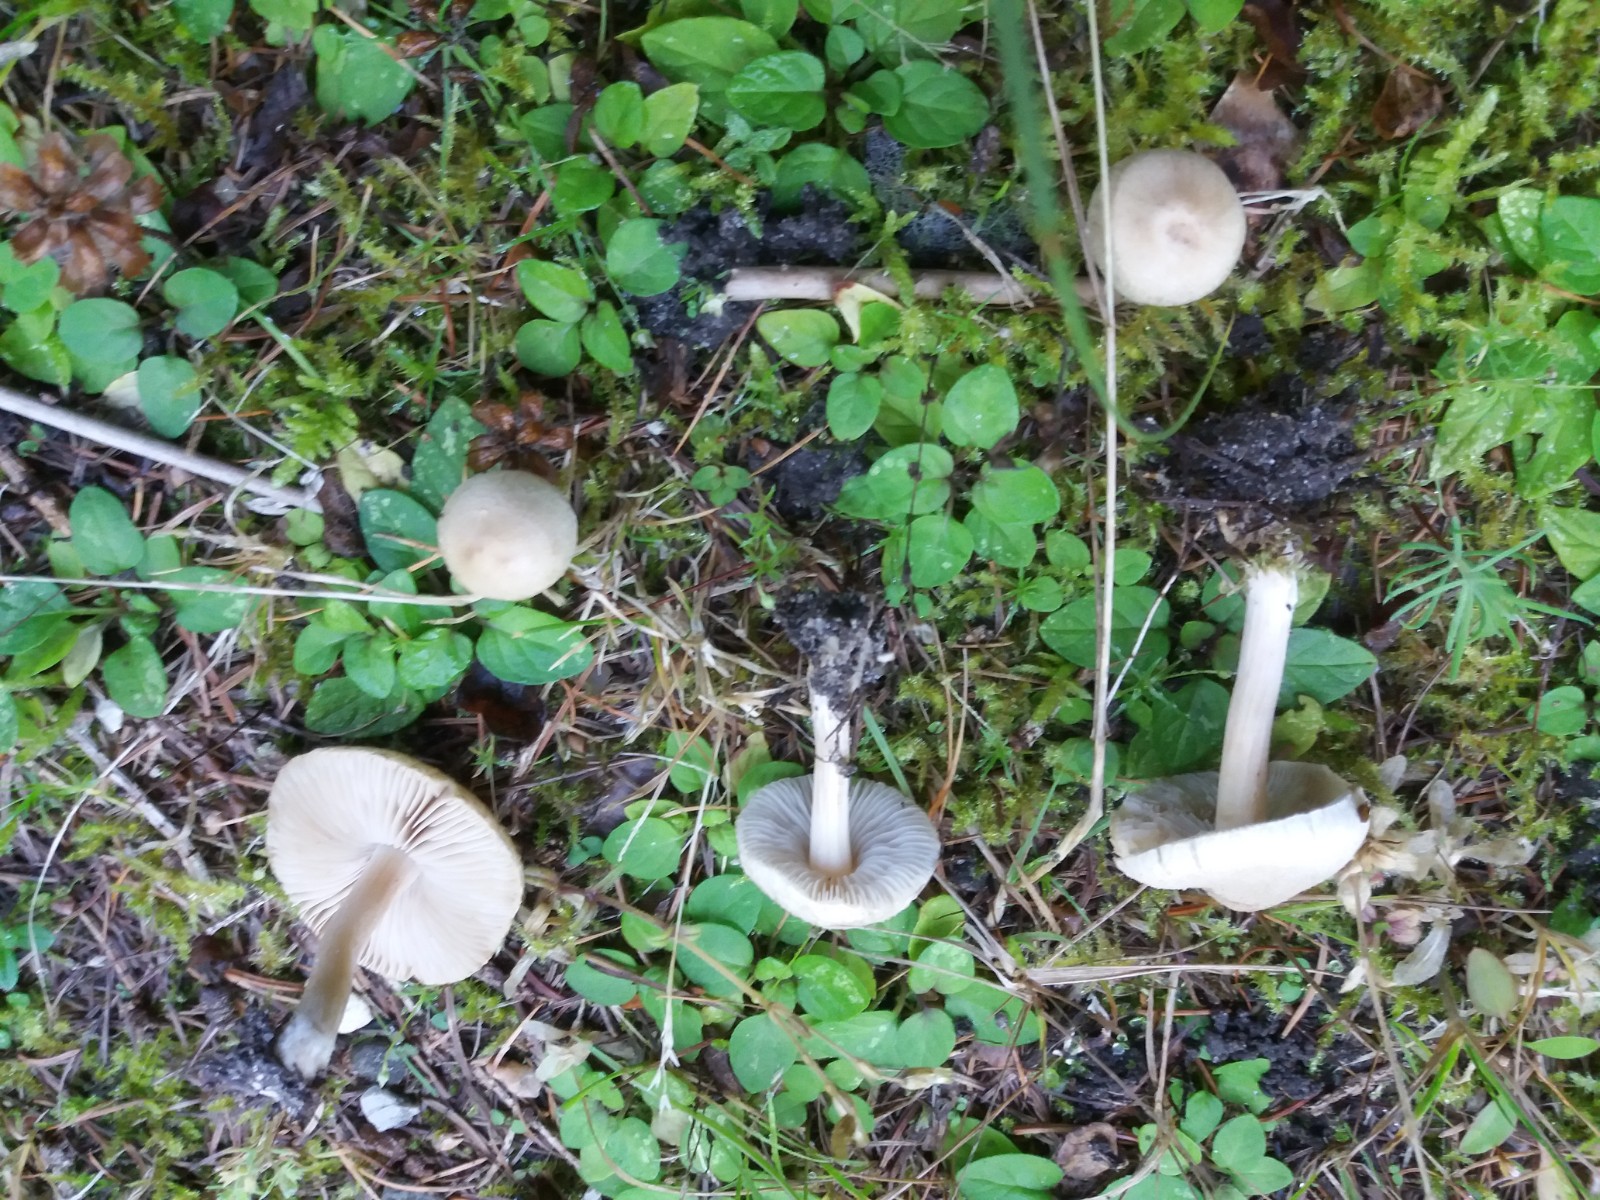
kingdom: Fungi
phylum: Basidiomycota
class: Agaricomycetes
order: Agaricales
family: Inocybaceae
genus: Inocybe
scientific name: Inocybe
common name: trævlhat
